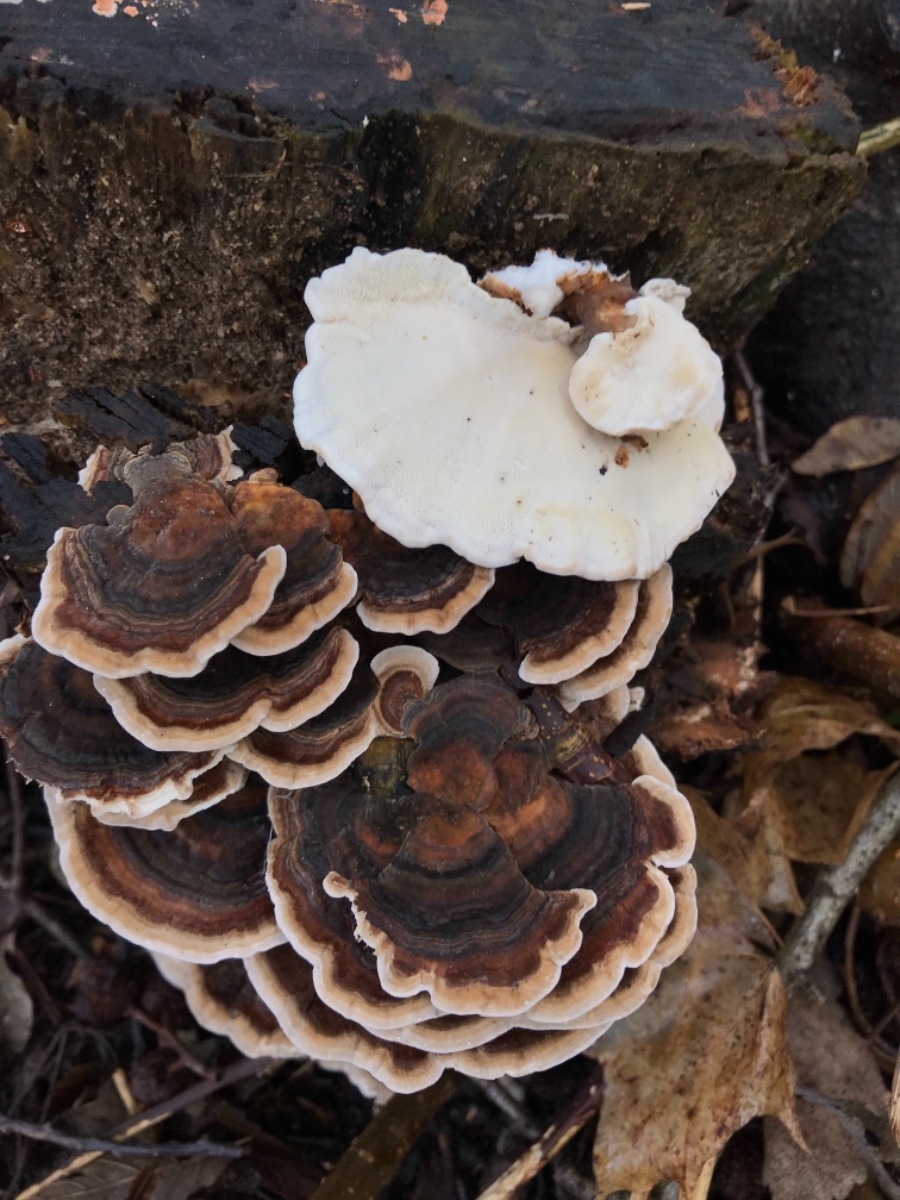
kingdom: Fungi
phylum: Basidiomycota
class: Agaricomycetes
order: Polyporales
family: Polyporaceae
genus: Trametes
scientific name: Trametes versicolor
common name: broget læderporesvamp
